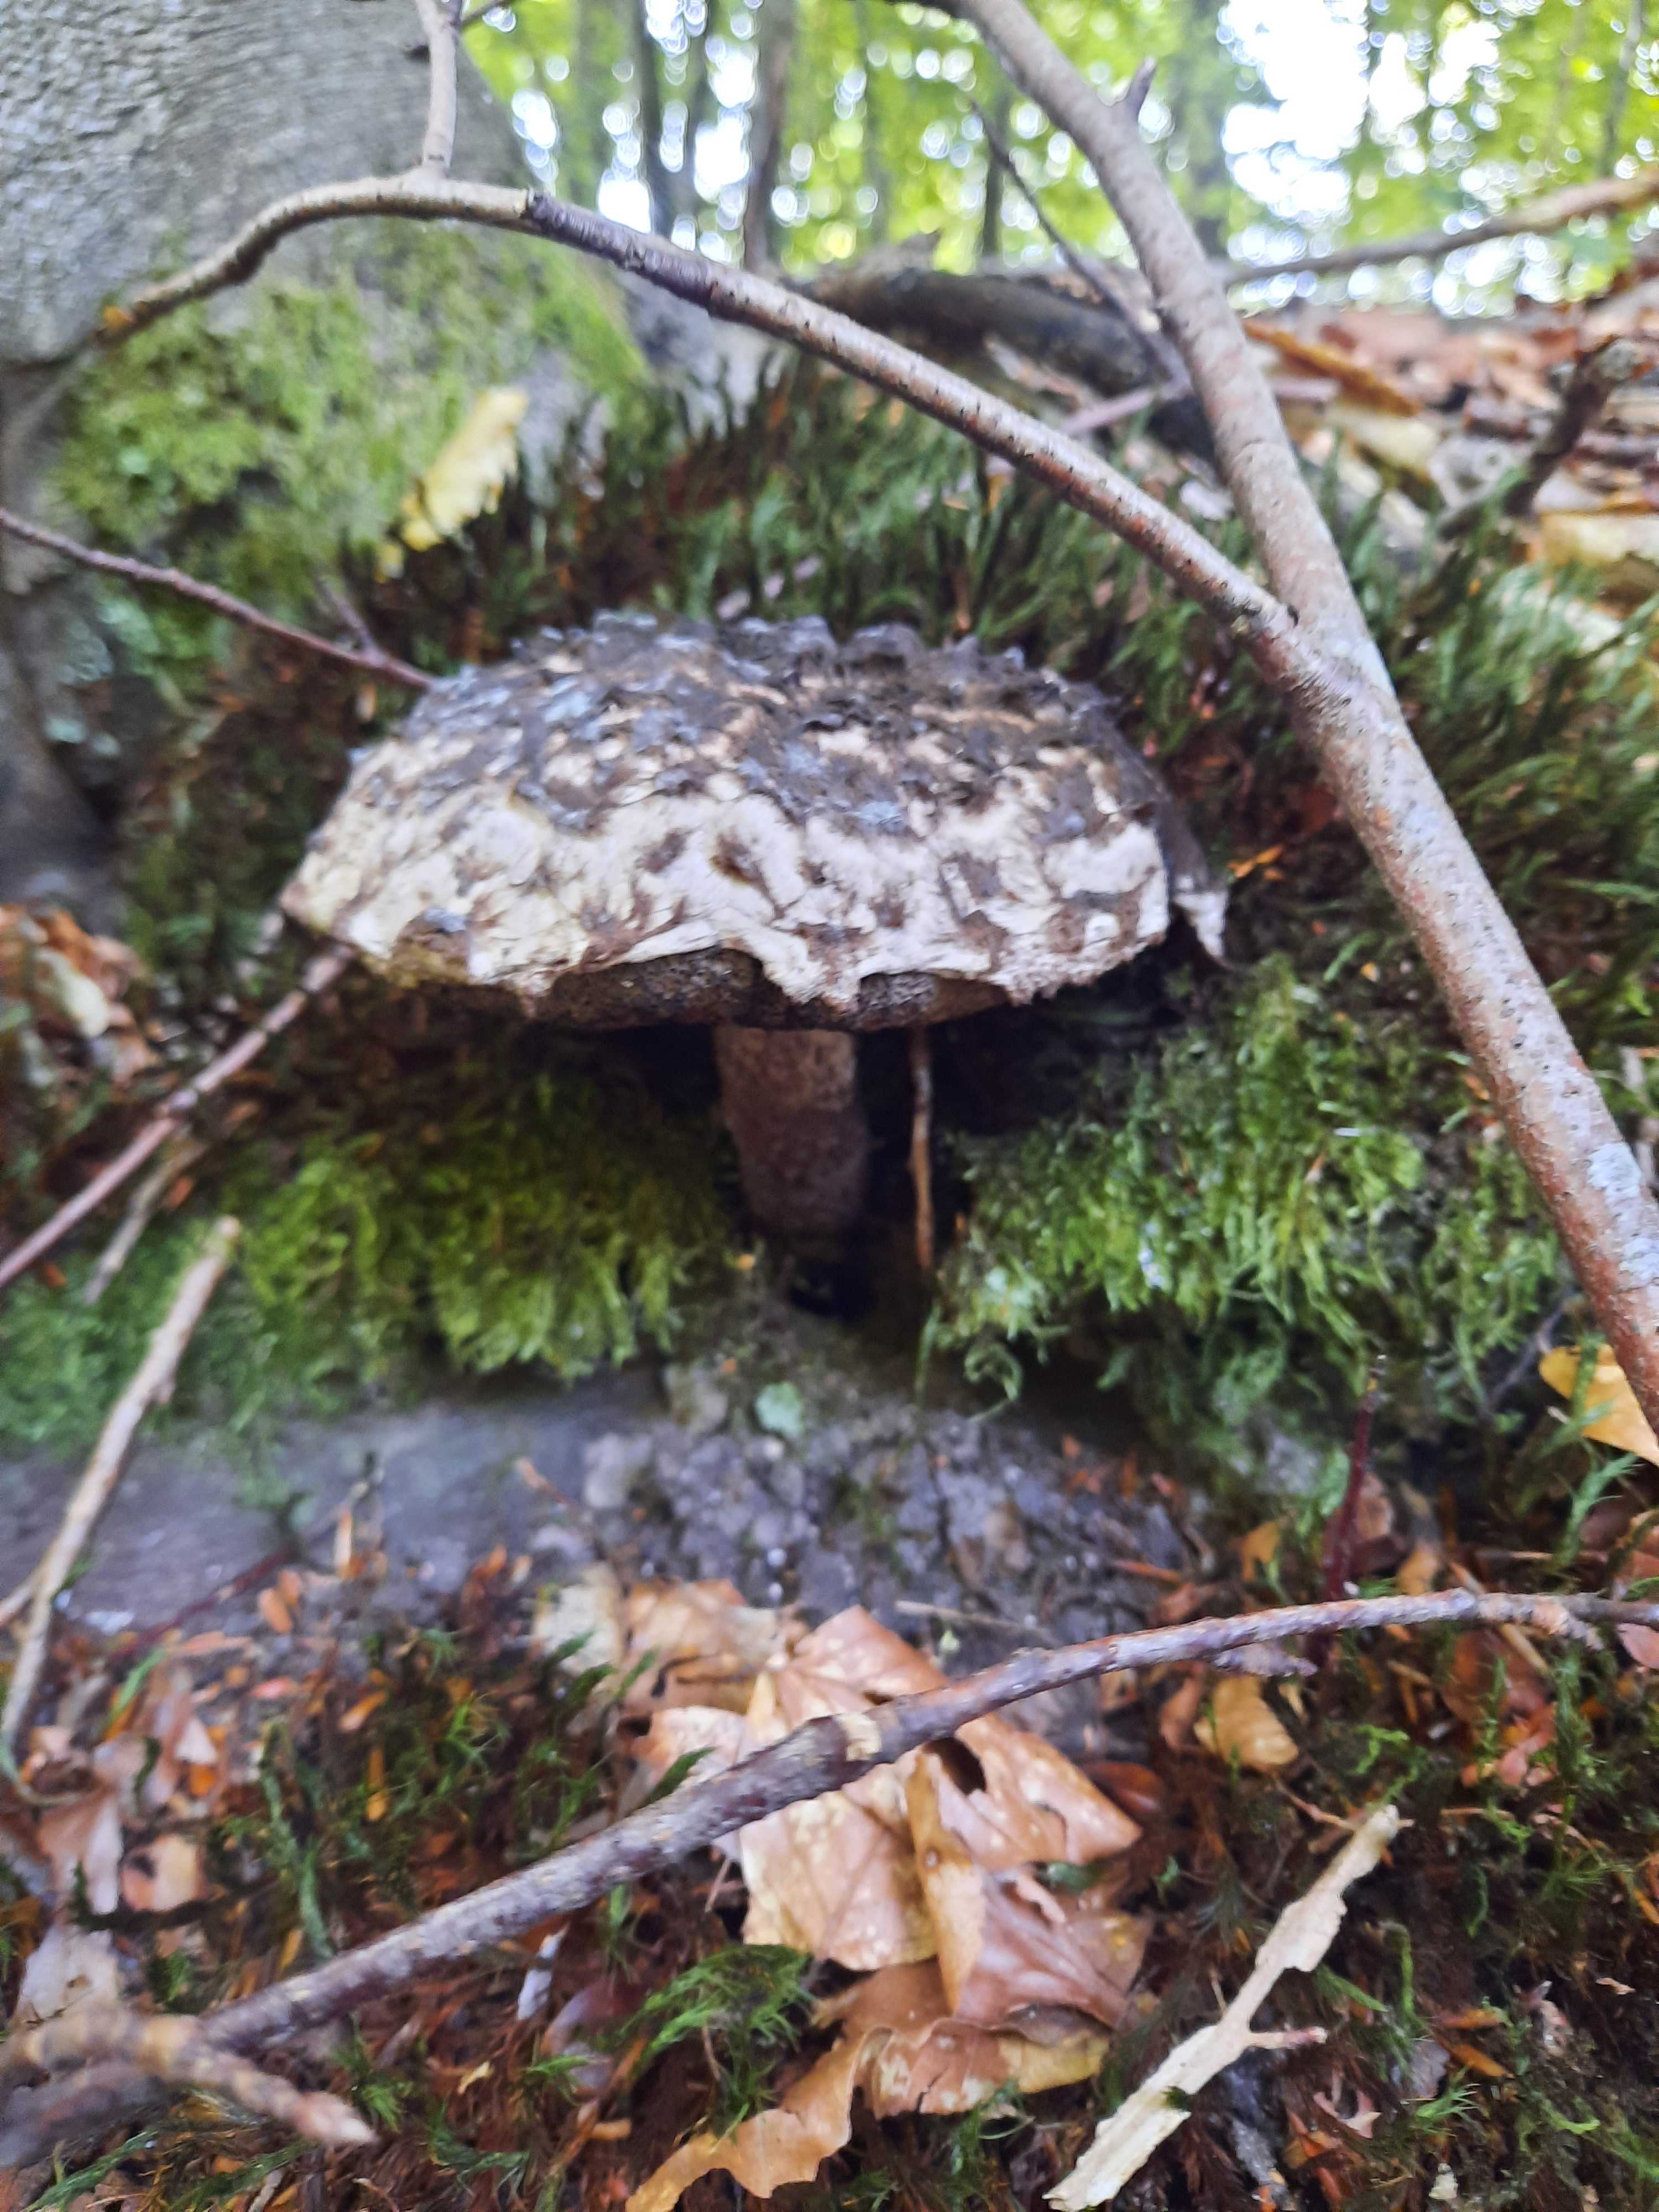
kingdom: Fungi
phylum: Basidiomycota
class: Agaricomycetes
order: Boletales
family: Boletaceae
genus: Strobilomyces
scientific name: Strobilomyces strobilaceus
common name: koglerørhat
